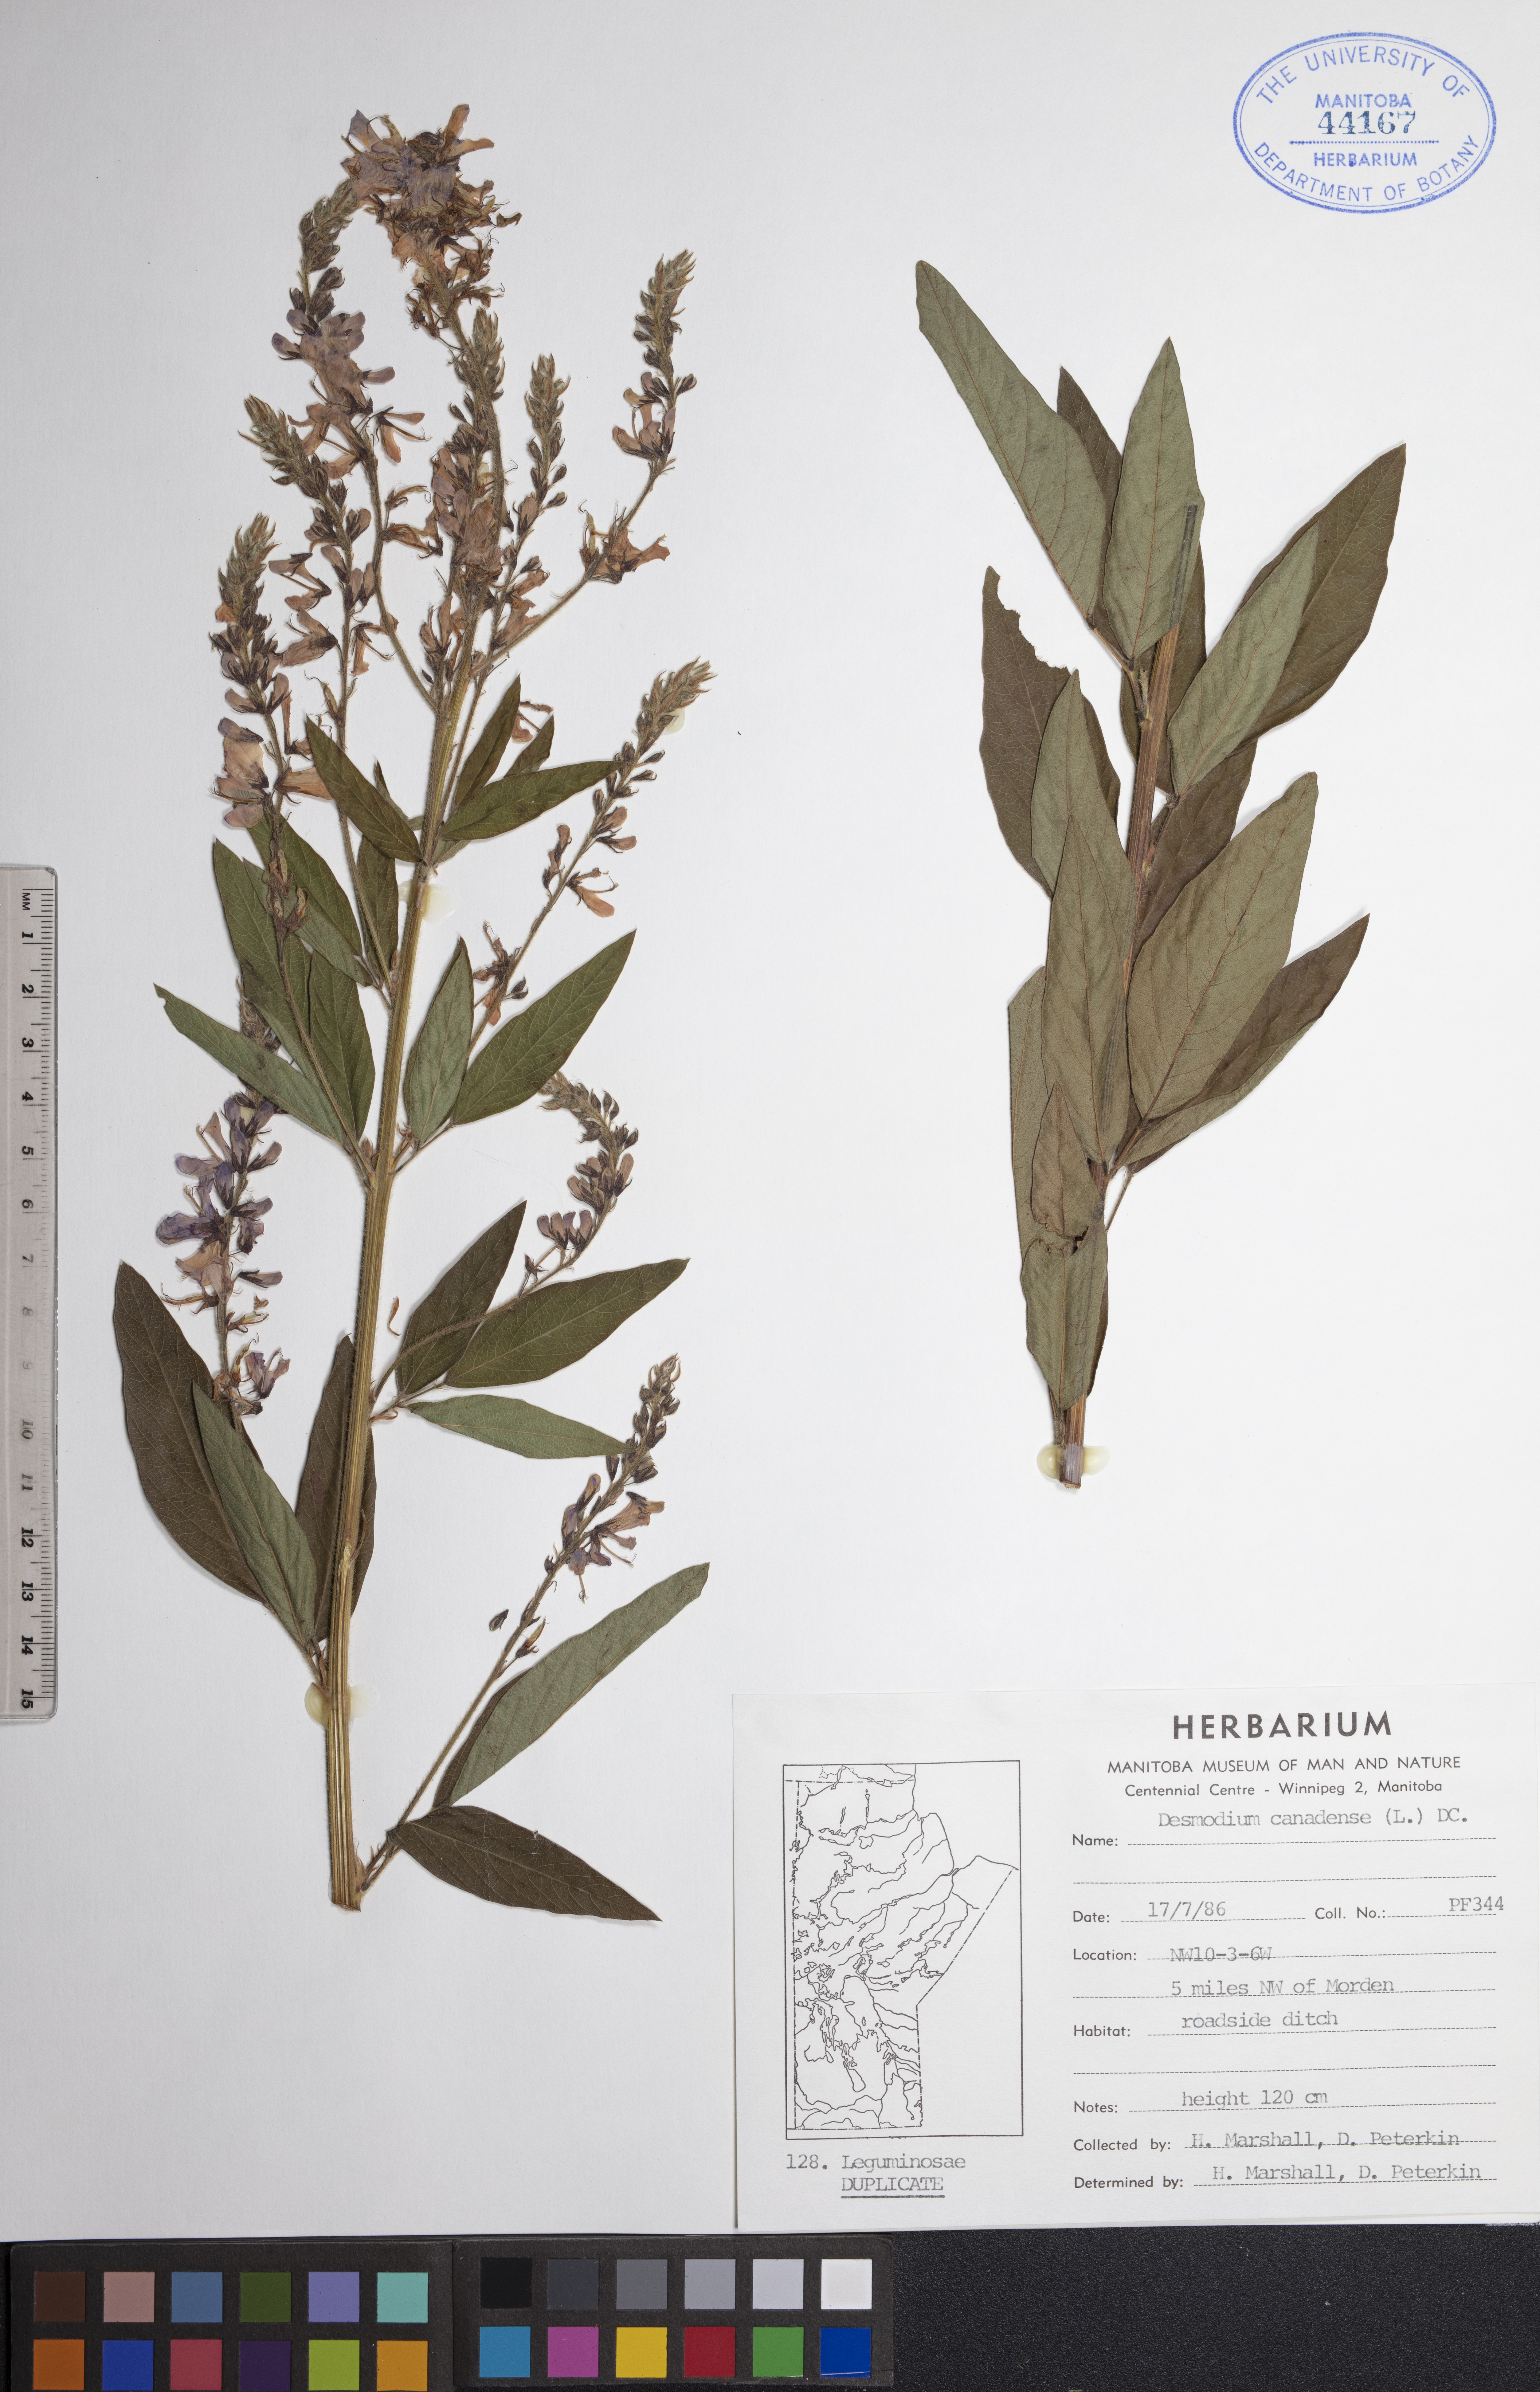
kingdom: Plantae
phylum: Tracheophyta
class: Magnoliopsida
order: Fabales
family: Fabaceae
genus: Desmodium
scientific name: Desmodium canadense
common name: Canada tick-trefoil
